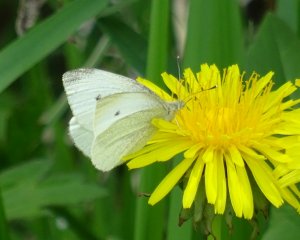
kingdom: Animalia
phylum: Arthropoda
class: Insecta
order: Lepidoptera
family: Pieridae
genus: Pieris
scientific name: Pieris rapae
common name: Cabbage White
